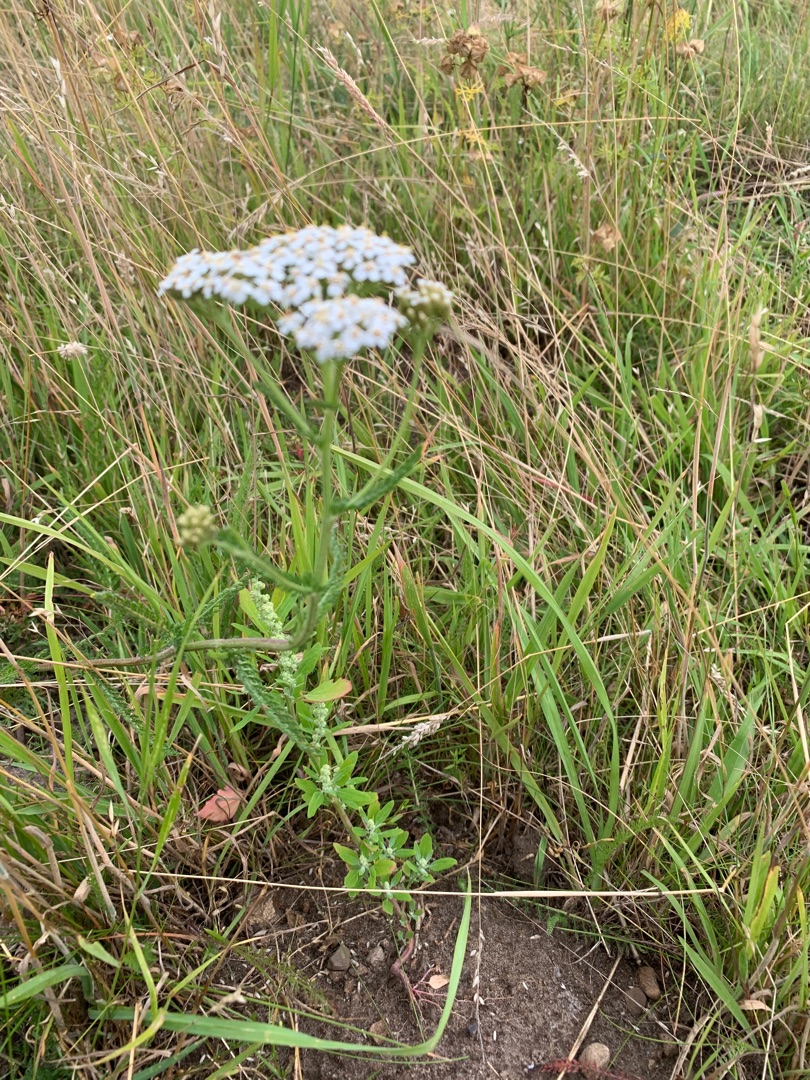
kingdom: Plantae
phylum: Tracheophyta
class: Magnoliopsida
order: Asterales
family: Asteraceae
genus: Achillea
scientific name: Achillea millefolium
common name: Almindelig røllike
